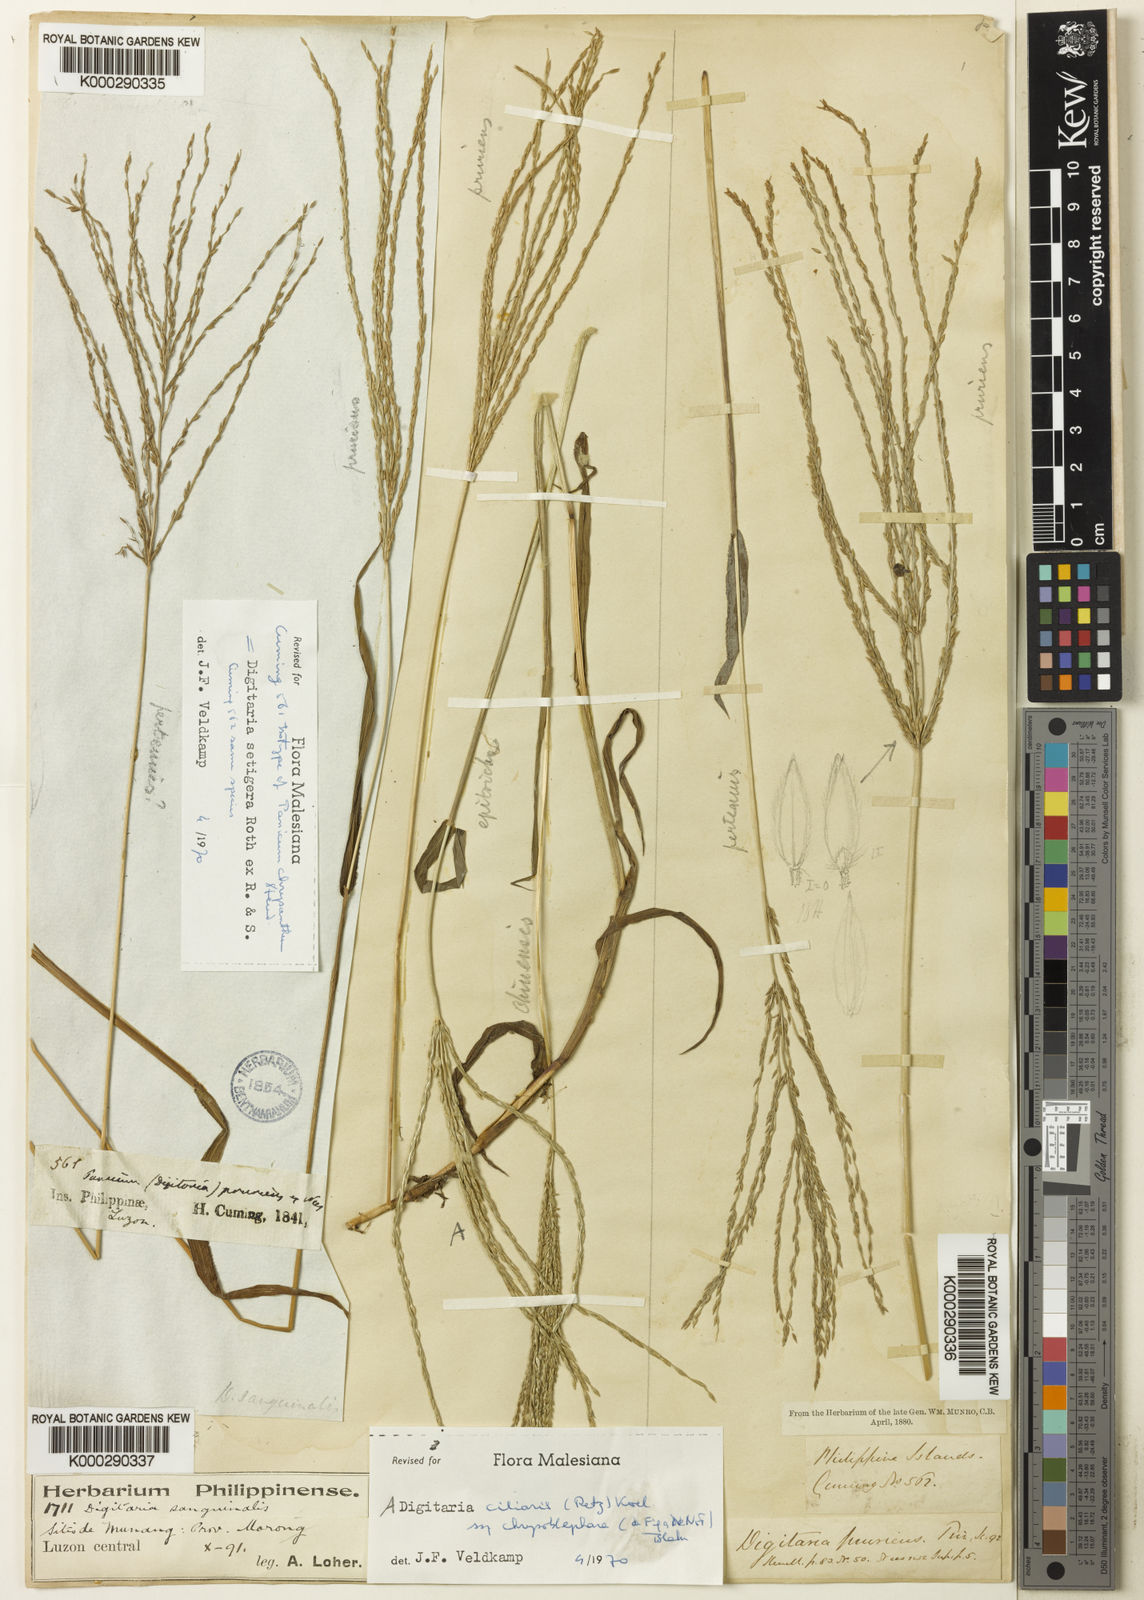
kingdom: Plantae
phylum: Tracheophyta
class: Liliopsida
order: Poales
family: Poaceae
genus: Digitaria
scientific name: Digitaria
